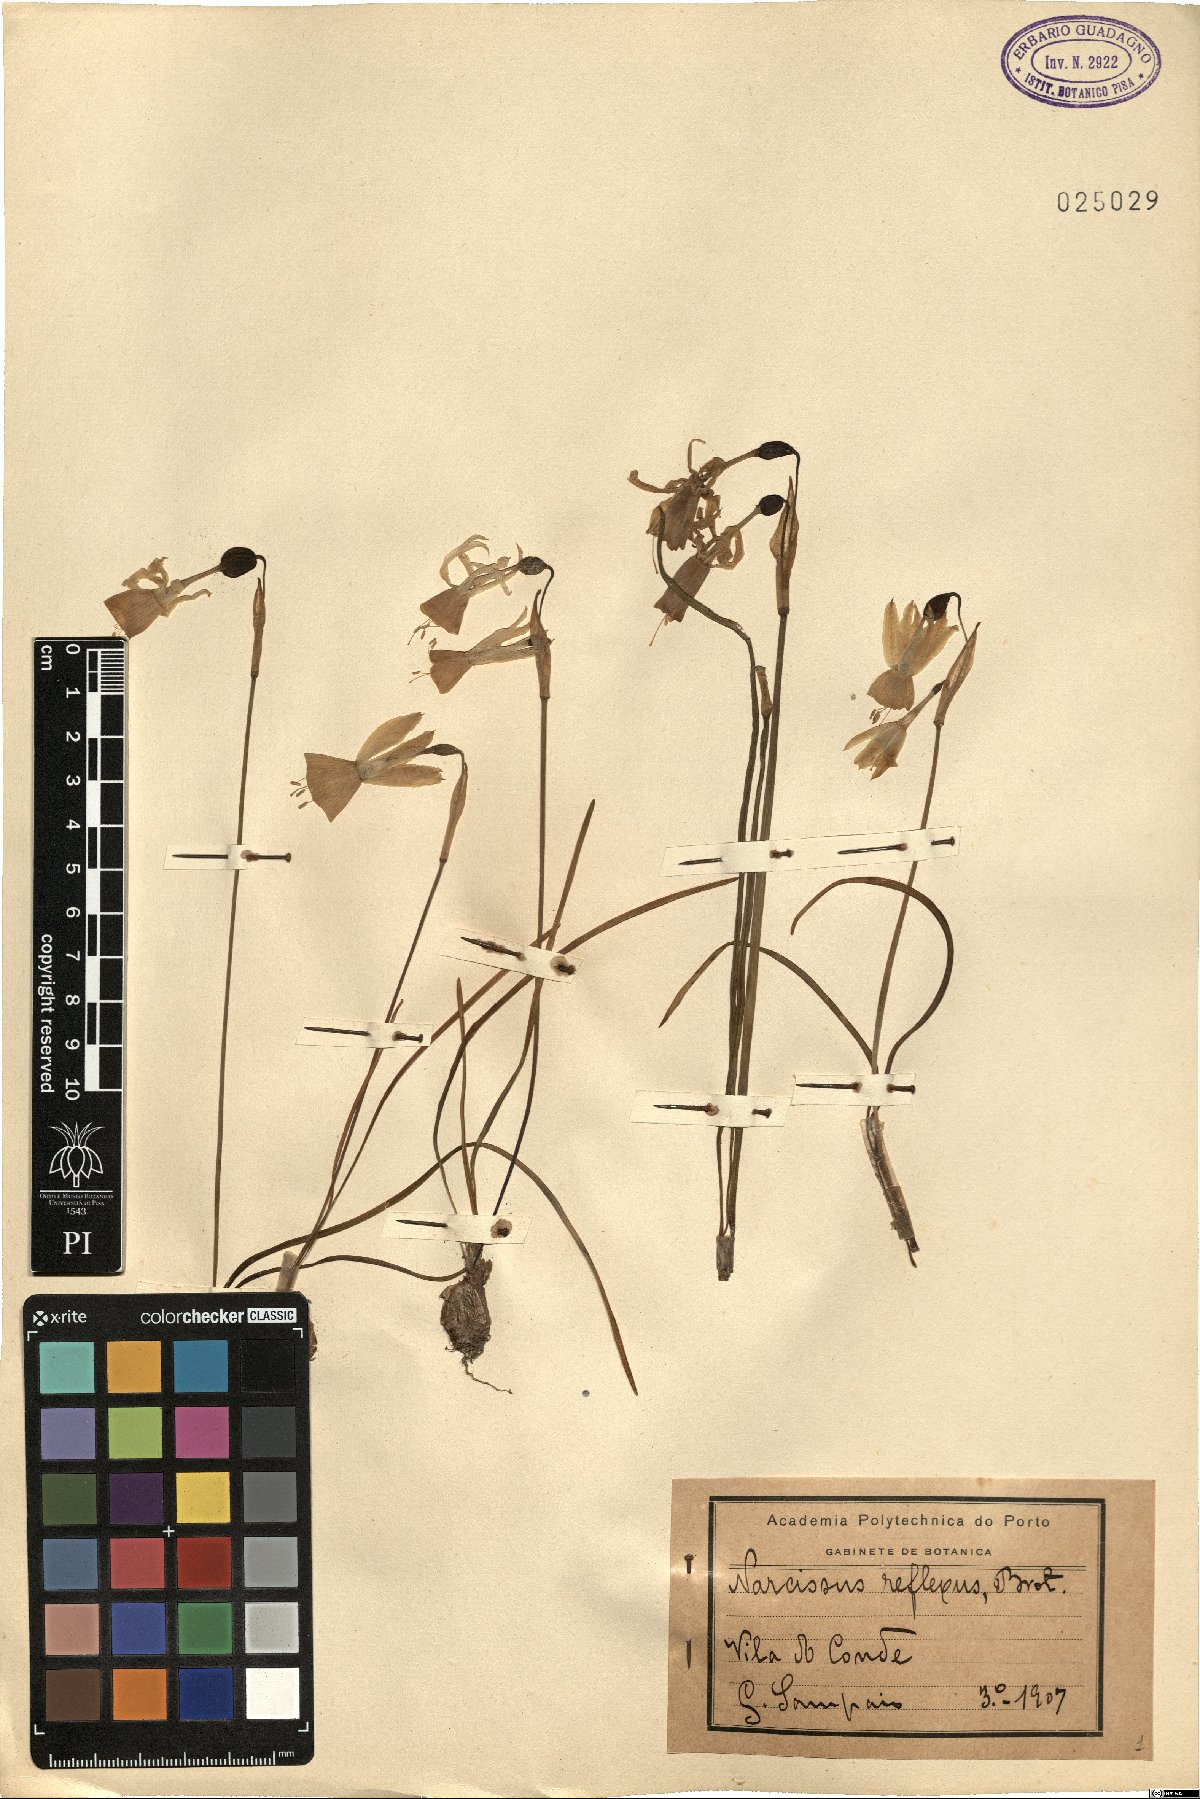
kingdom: Plantae
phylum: Tracheophyta
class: Liliopsida
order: Asparagales
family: Amaryllidaceae
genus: Narcissus
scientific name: Narcissus triandrus
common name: Angel's-tears
